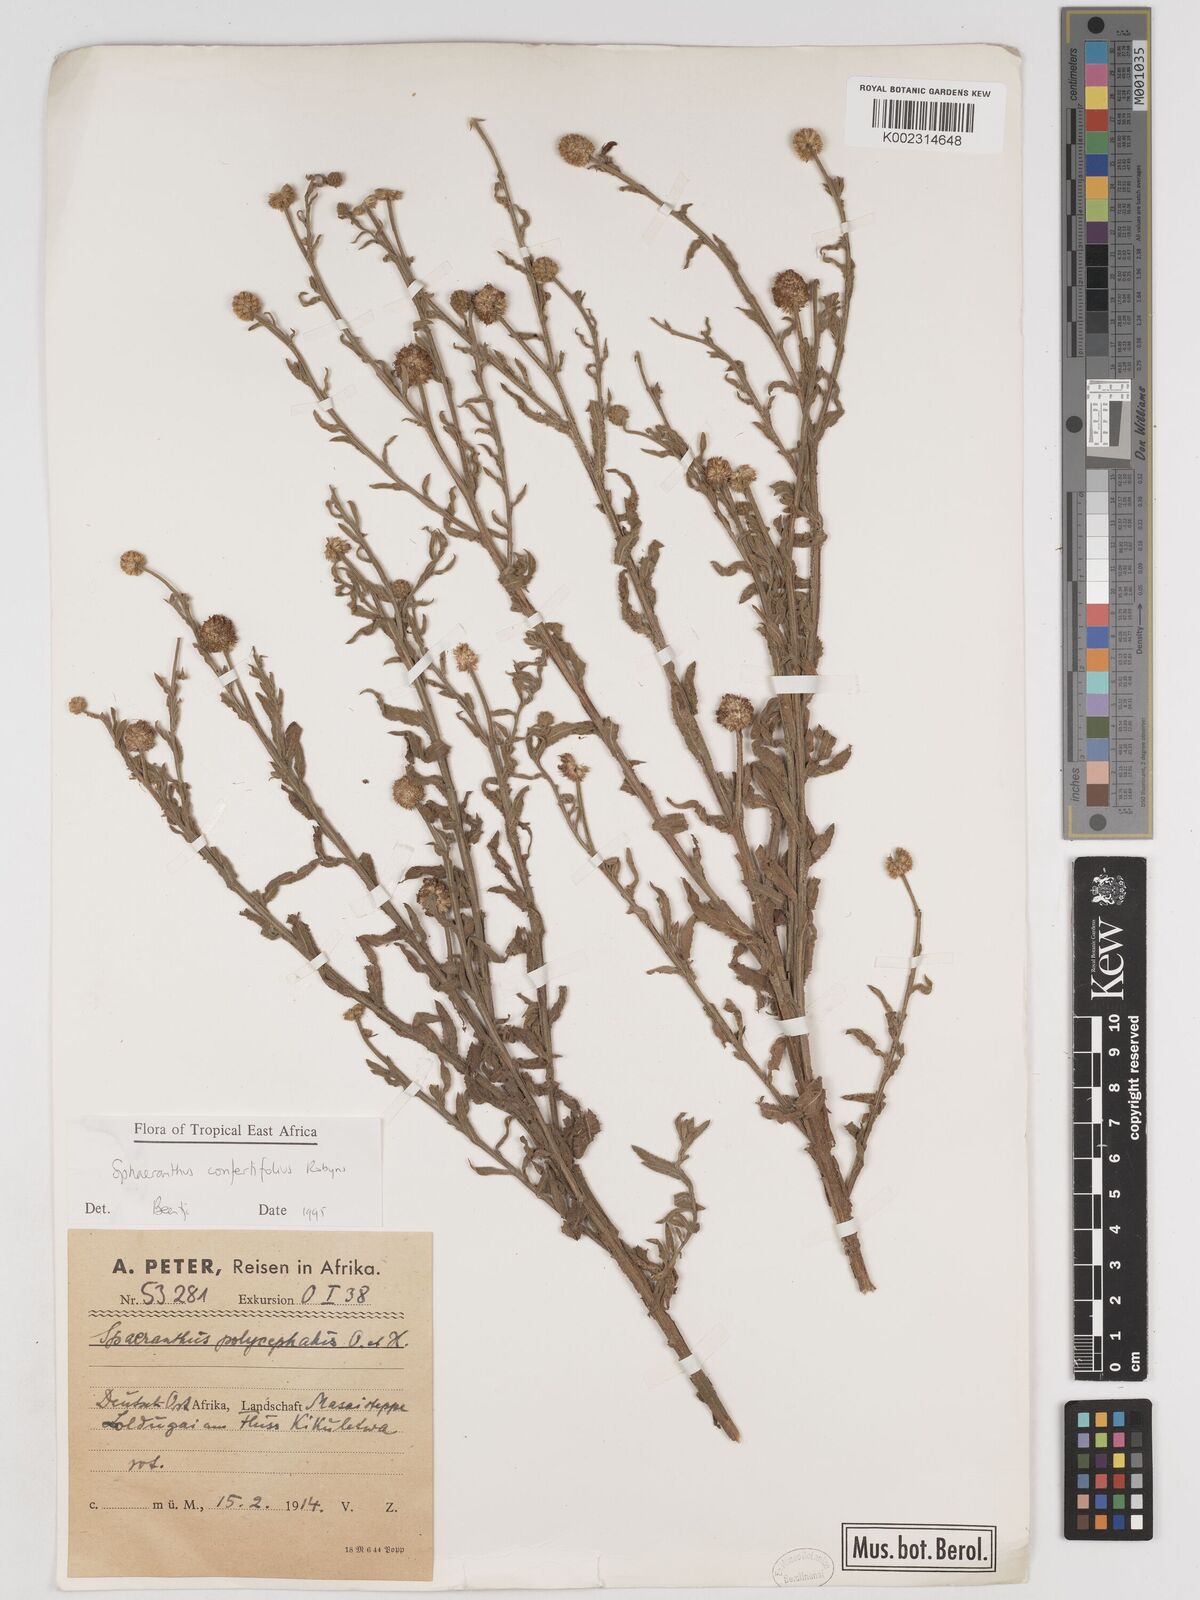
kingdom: Plantae
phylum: Tracheophyta
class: Magnoliopsida
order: Asterales
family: Asteraceae
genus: Sphaeranthus
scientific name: Sphaeranthus confertifolius
